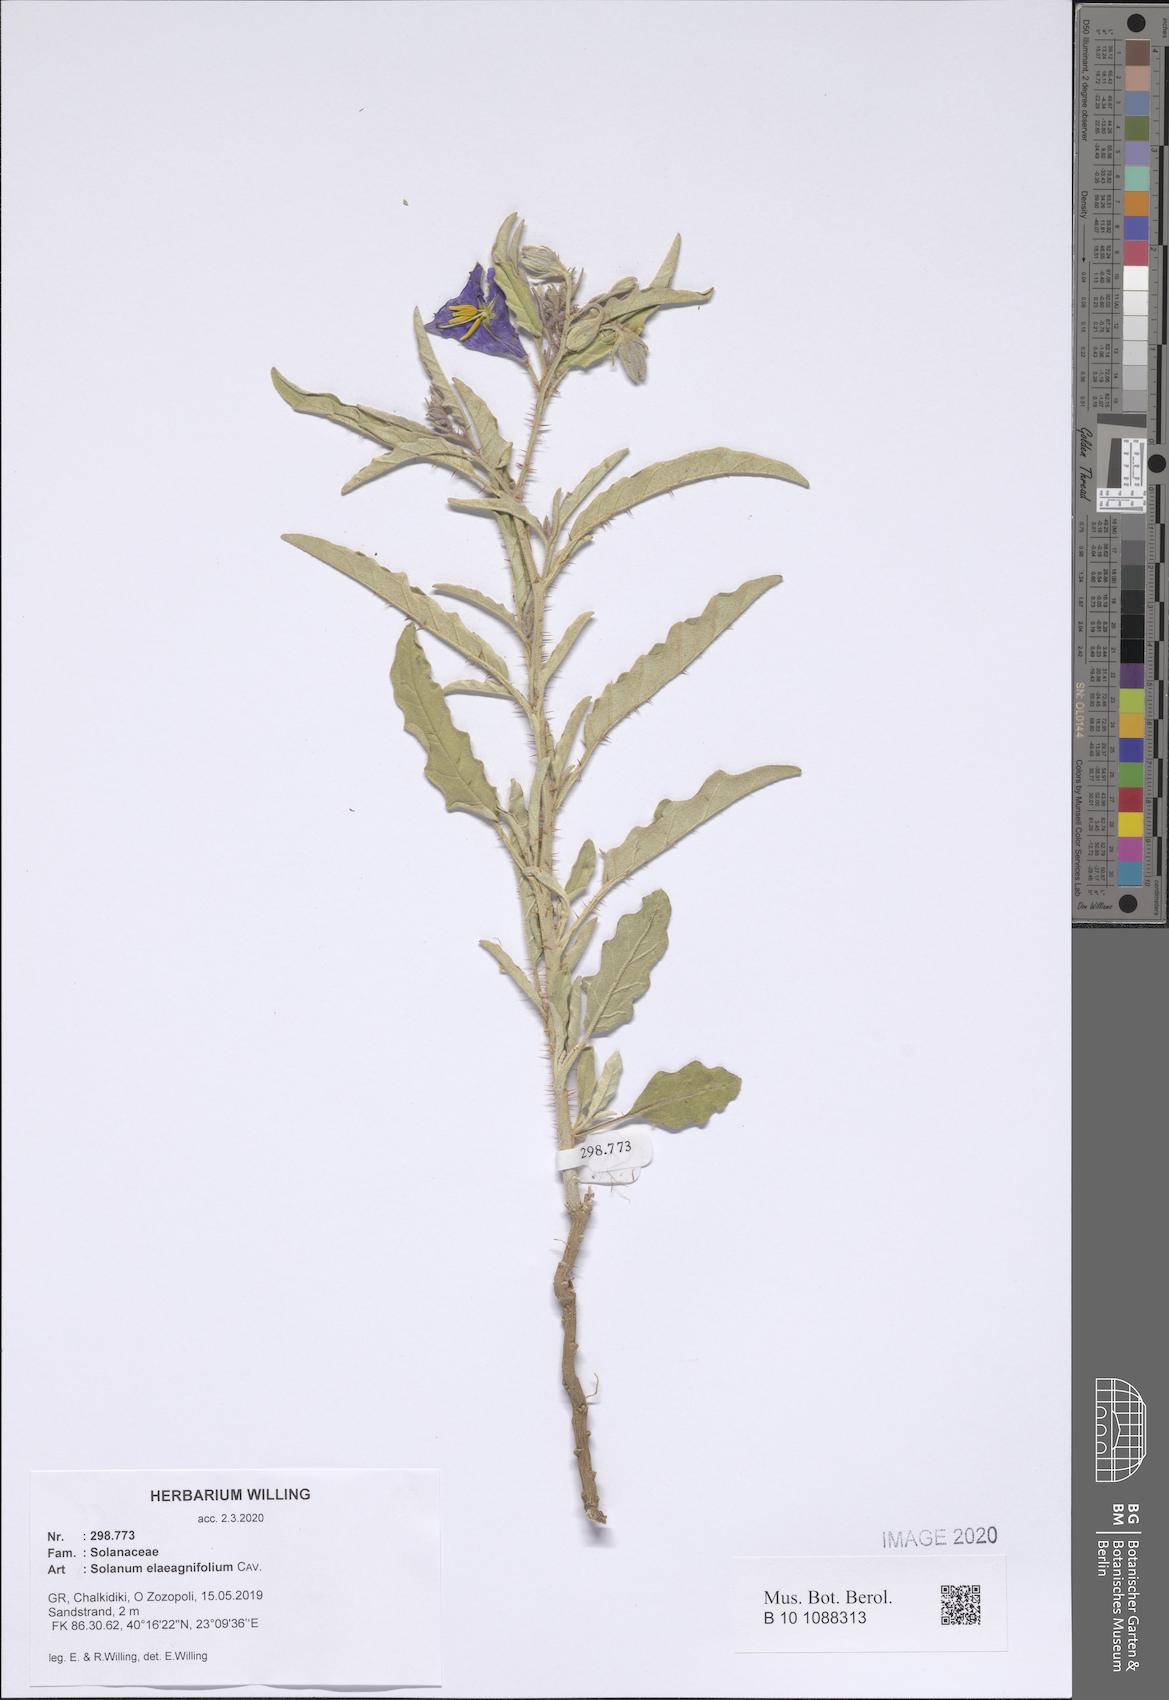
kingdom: Plantae
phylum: Tracheophyta
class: Magnoliopsida
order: Solanales
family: Solanaceae
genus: Solanum
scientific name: Solanum elaeagnifolium
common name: Silverleaf nightshade
